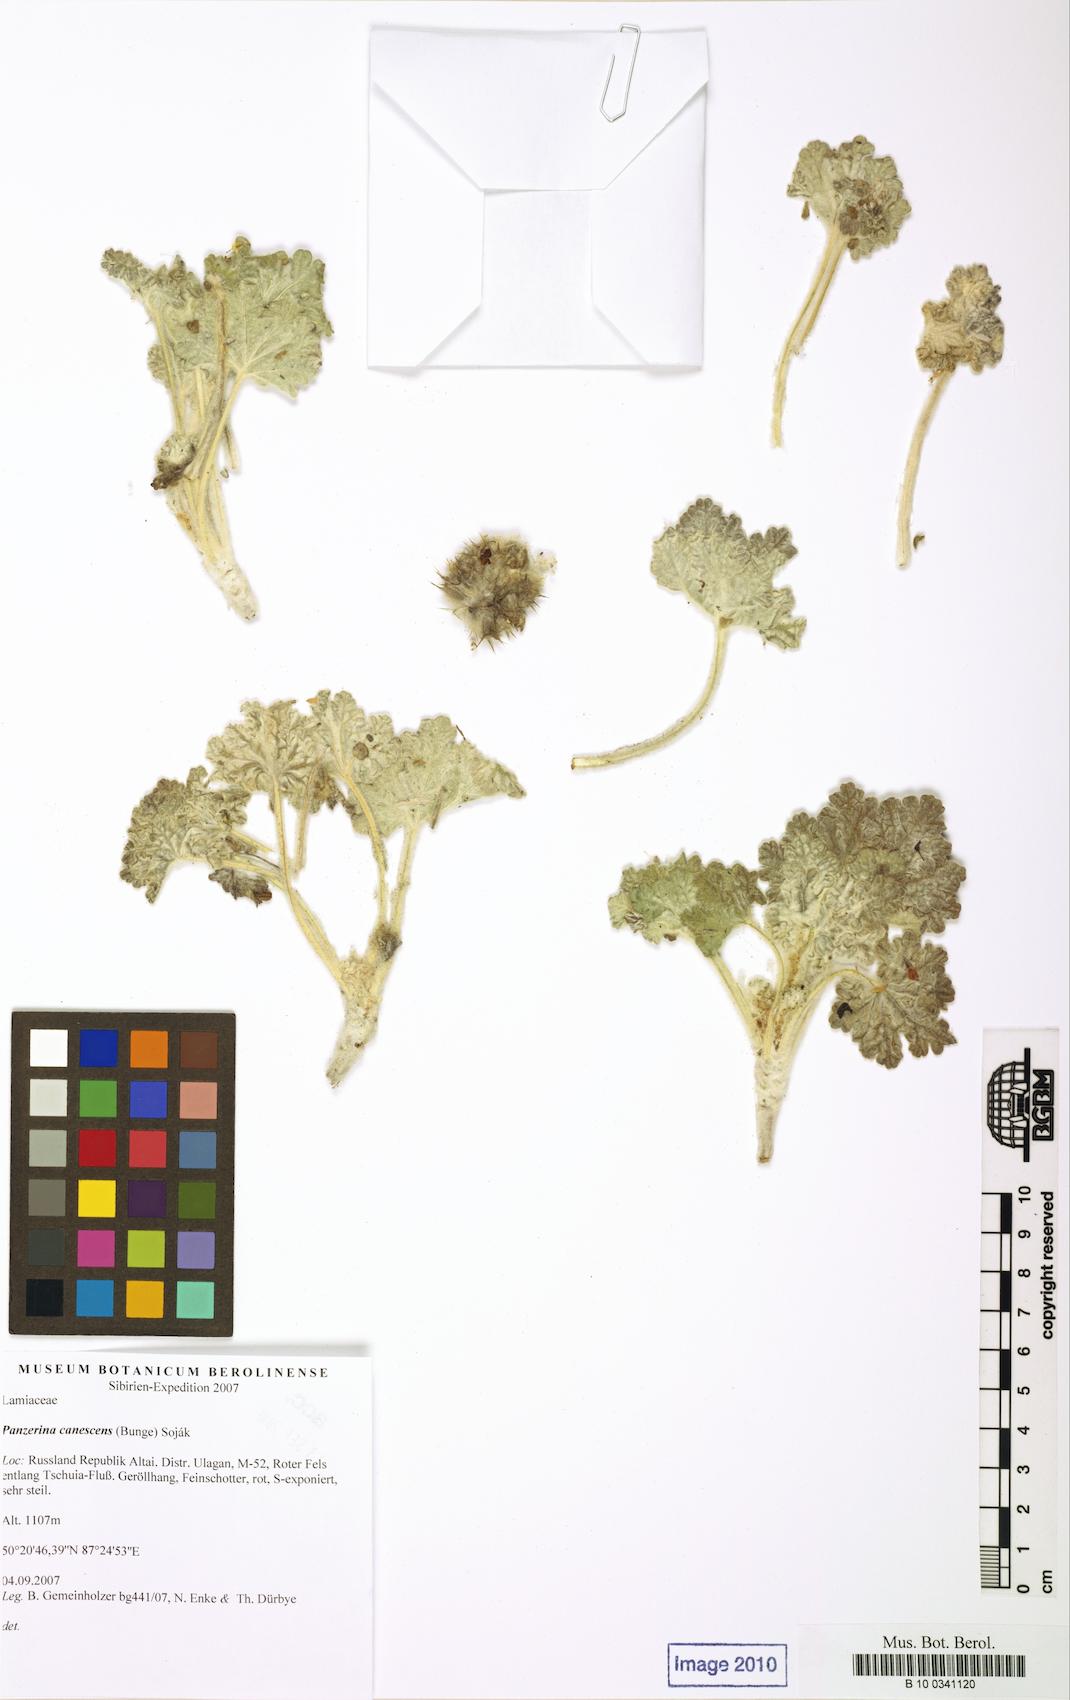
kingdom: Plantae
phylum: Tracheophyta
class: Magnoliopsida
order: Lamiales
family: Lamiaceae
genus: Panzerina
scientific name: Panzerina canescens
